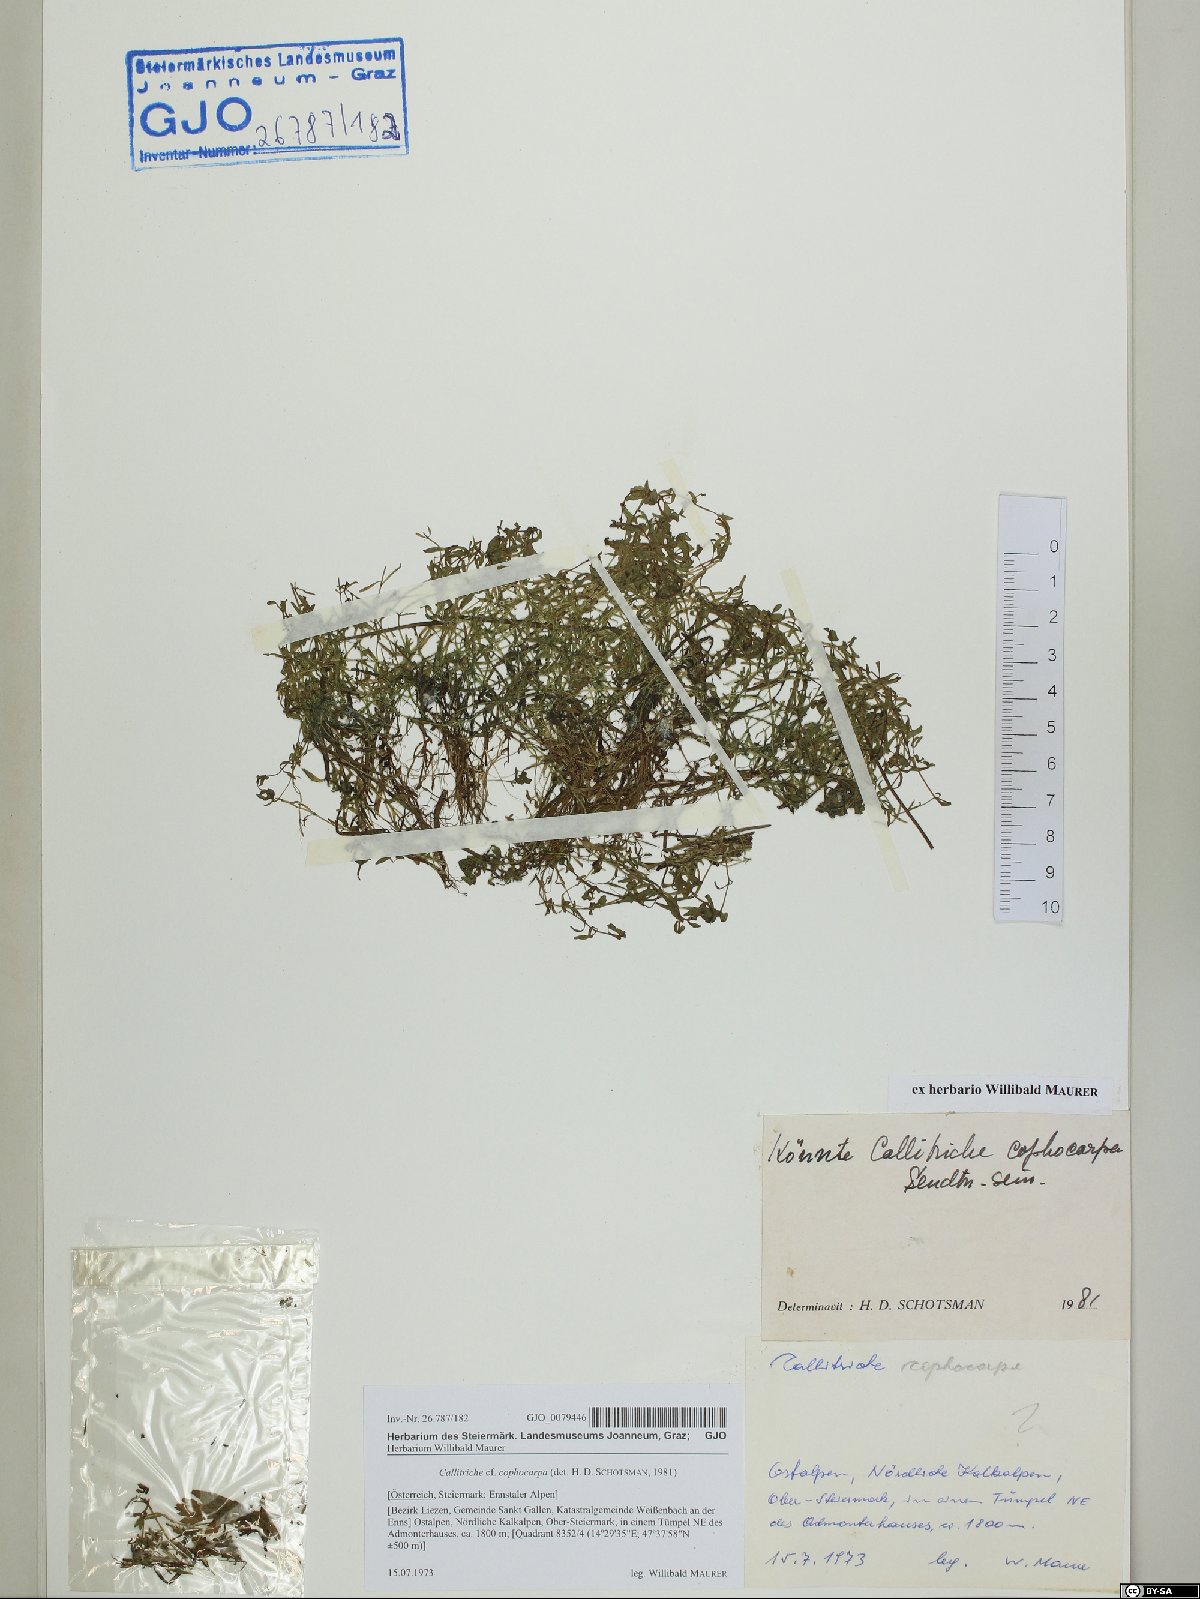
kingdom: Plantae
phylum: Tracheophyta
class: Magnoliopsida
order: Lamiales
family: Plantaginaceae
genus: Callitriche
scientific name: Callitriche cophocarpa
